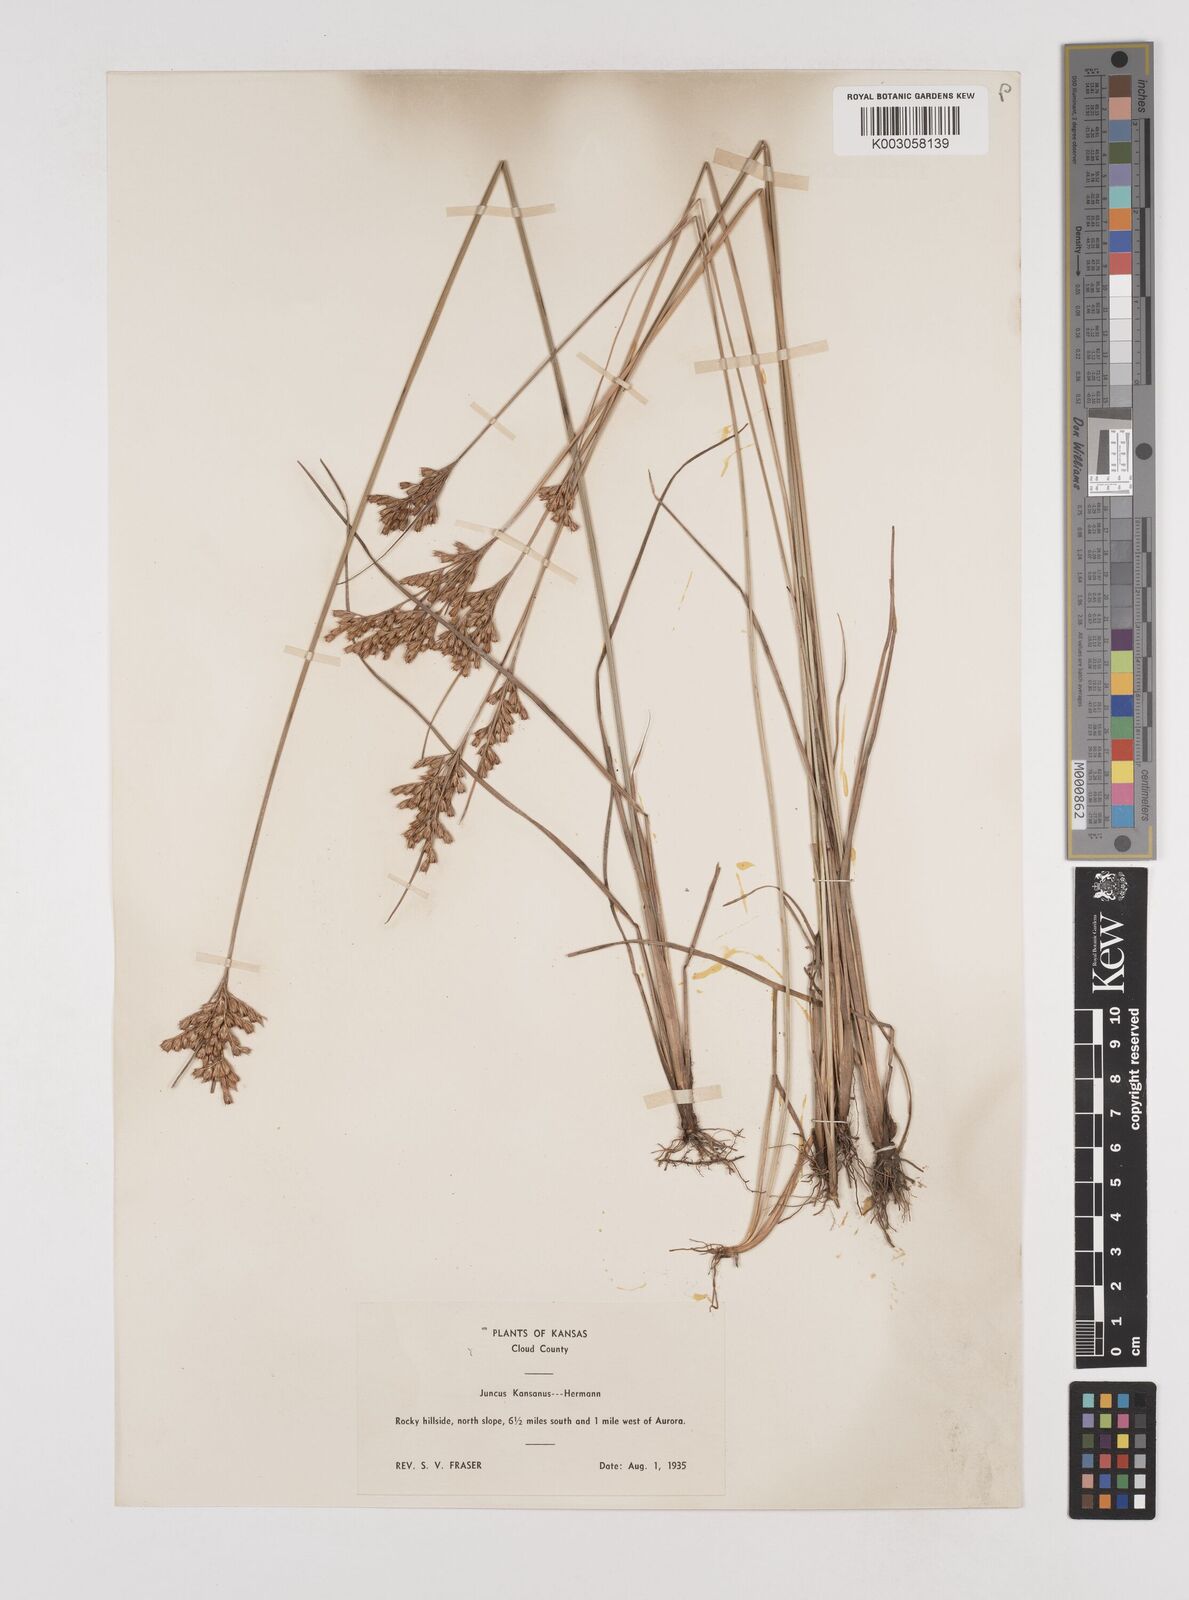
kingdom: Plantae
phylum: Tracheophyta
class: Liliopsida
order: Poales
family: Juncaceae
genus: Juncus
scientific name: Juncus brachyphyllus
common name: Tufted-stem rush
